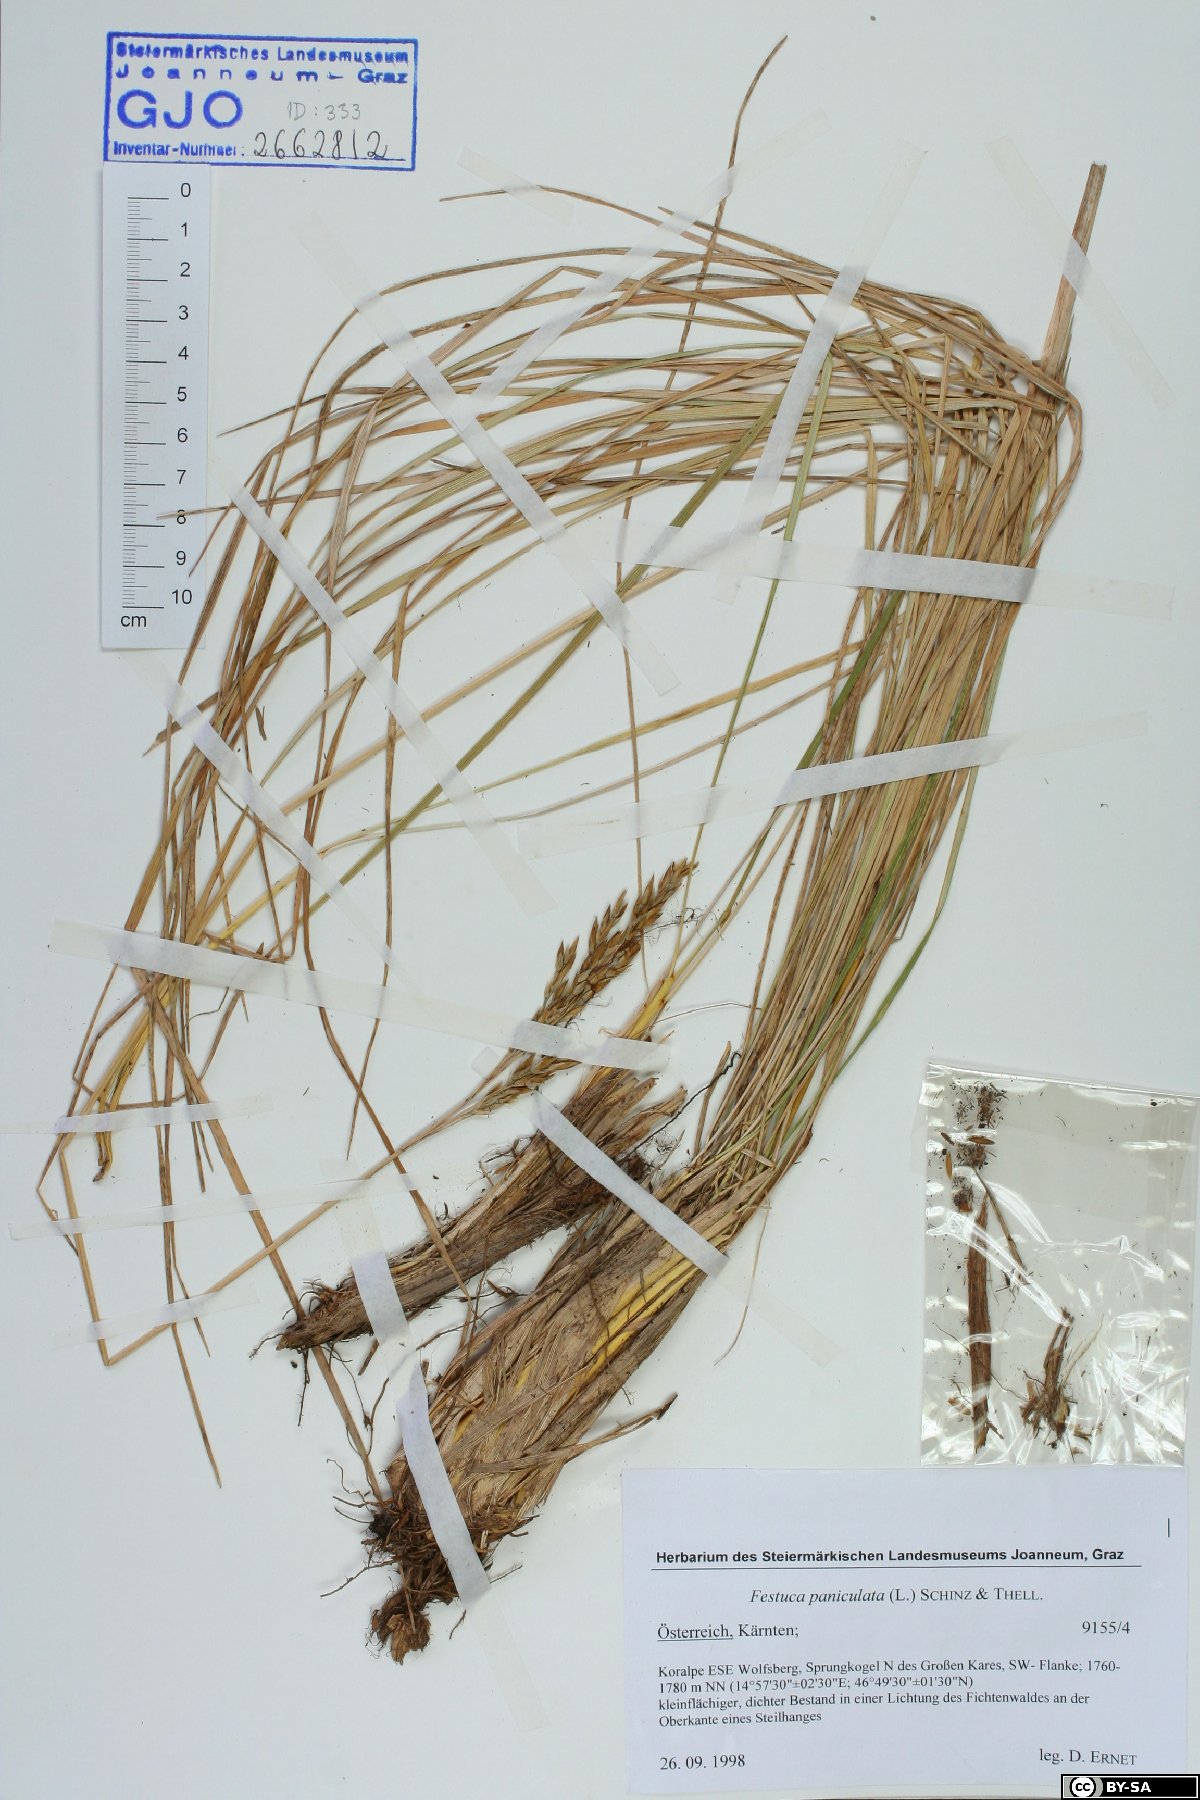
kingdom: Plantae
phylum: Tracheophyta
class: Liliopsida
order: Poales
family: Poaceae
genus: Patzkea
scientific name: Patzkea paniculata
